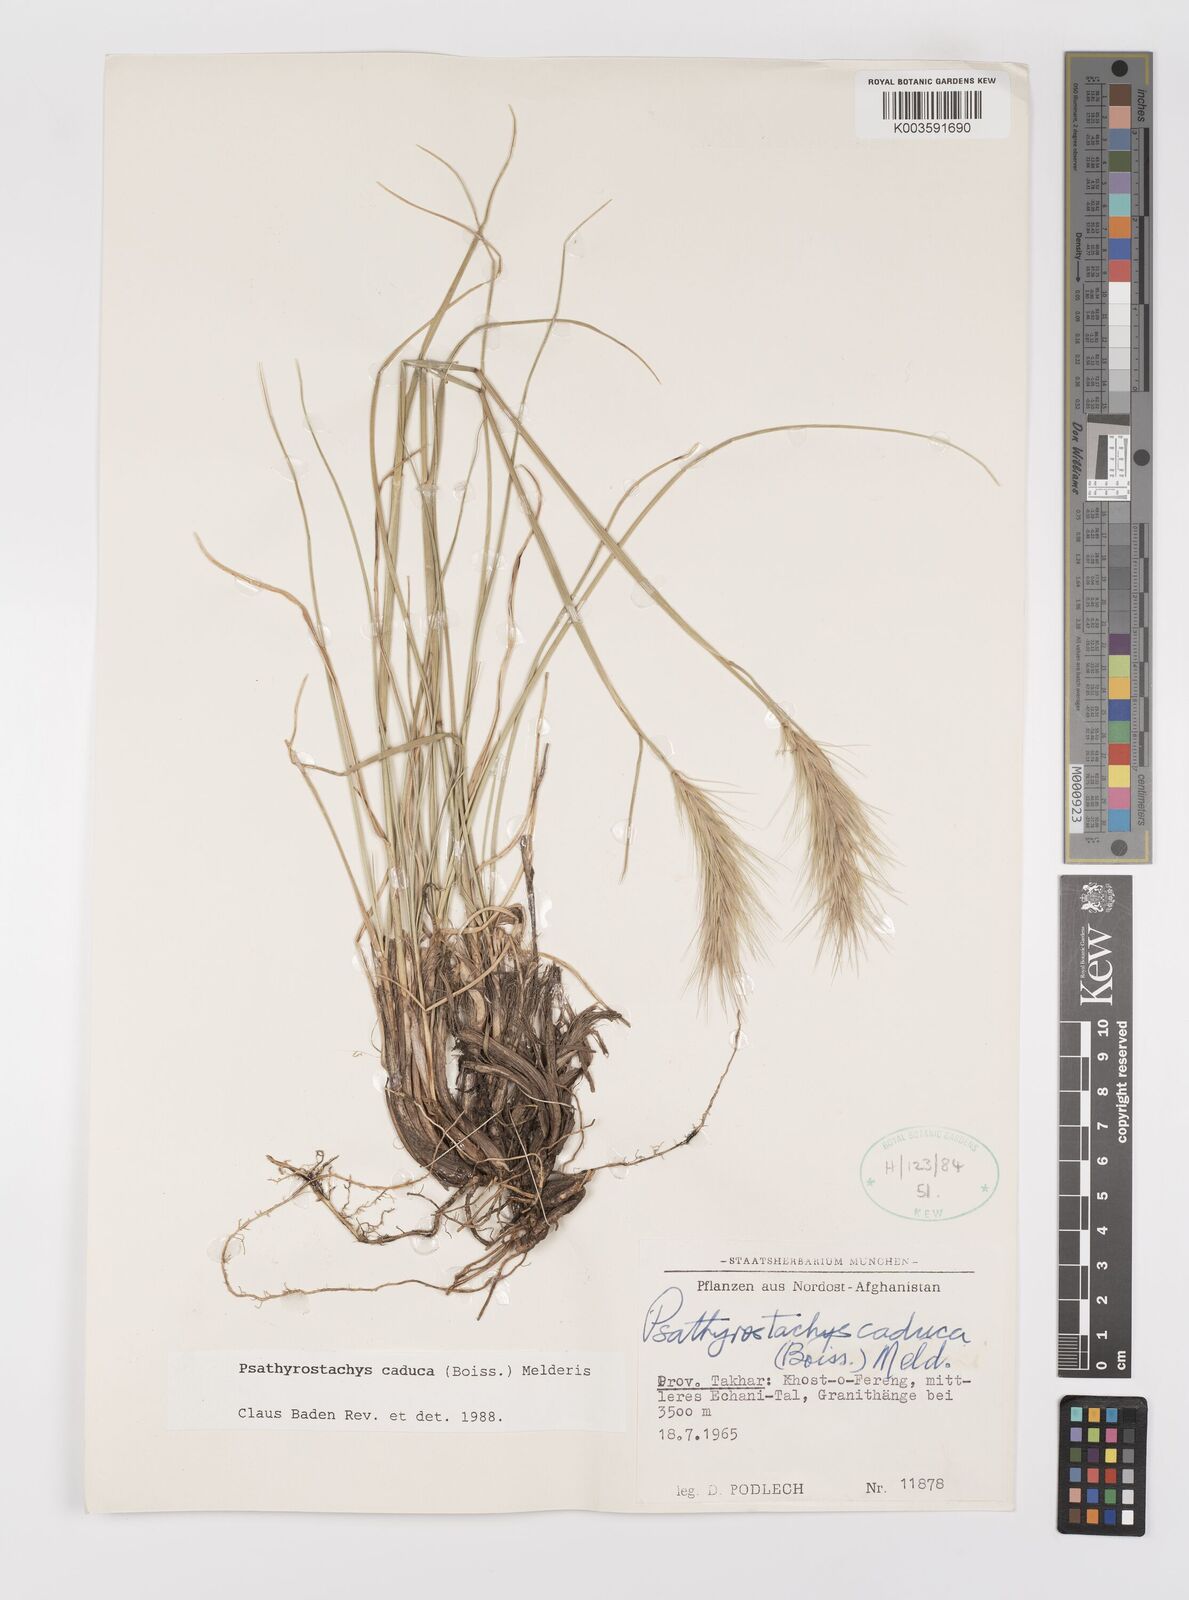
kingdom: Plantae
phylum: Tracheophyta
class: Liliopsida
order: Poales
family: Poaceae
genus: Psathyrostachys
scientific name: Psathyrostachys caduca
